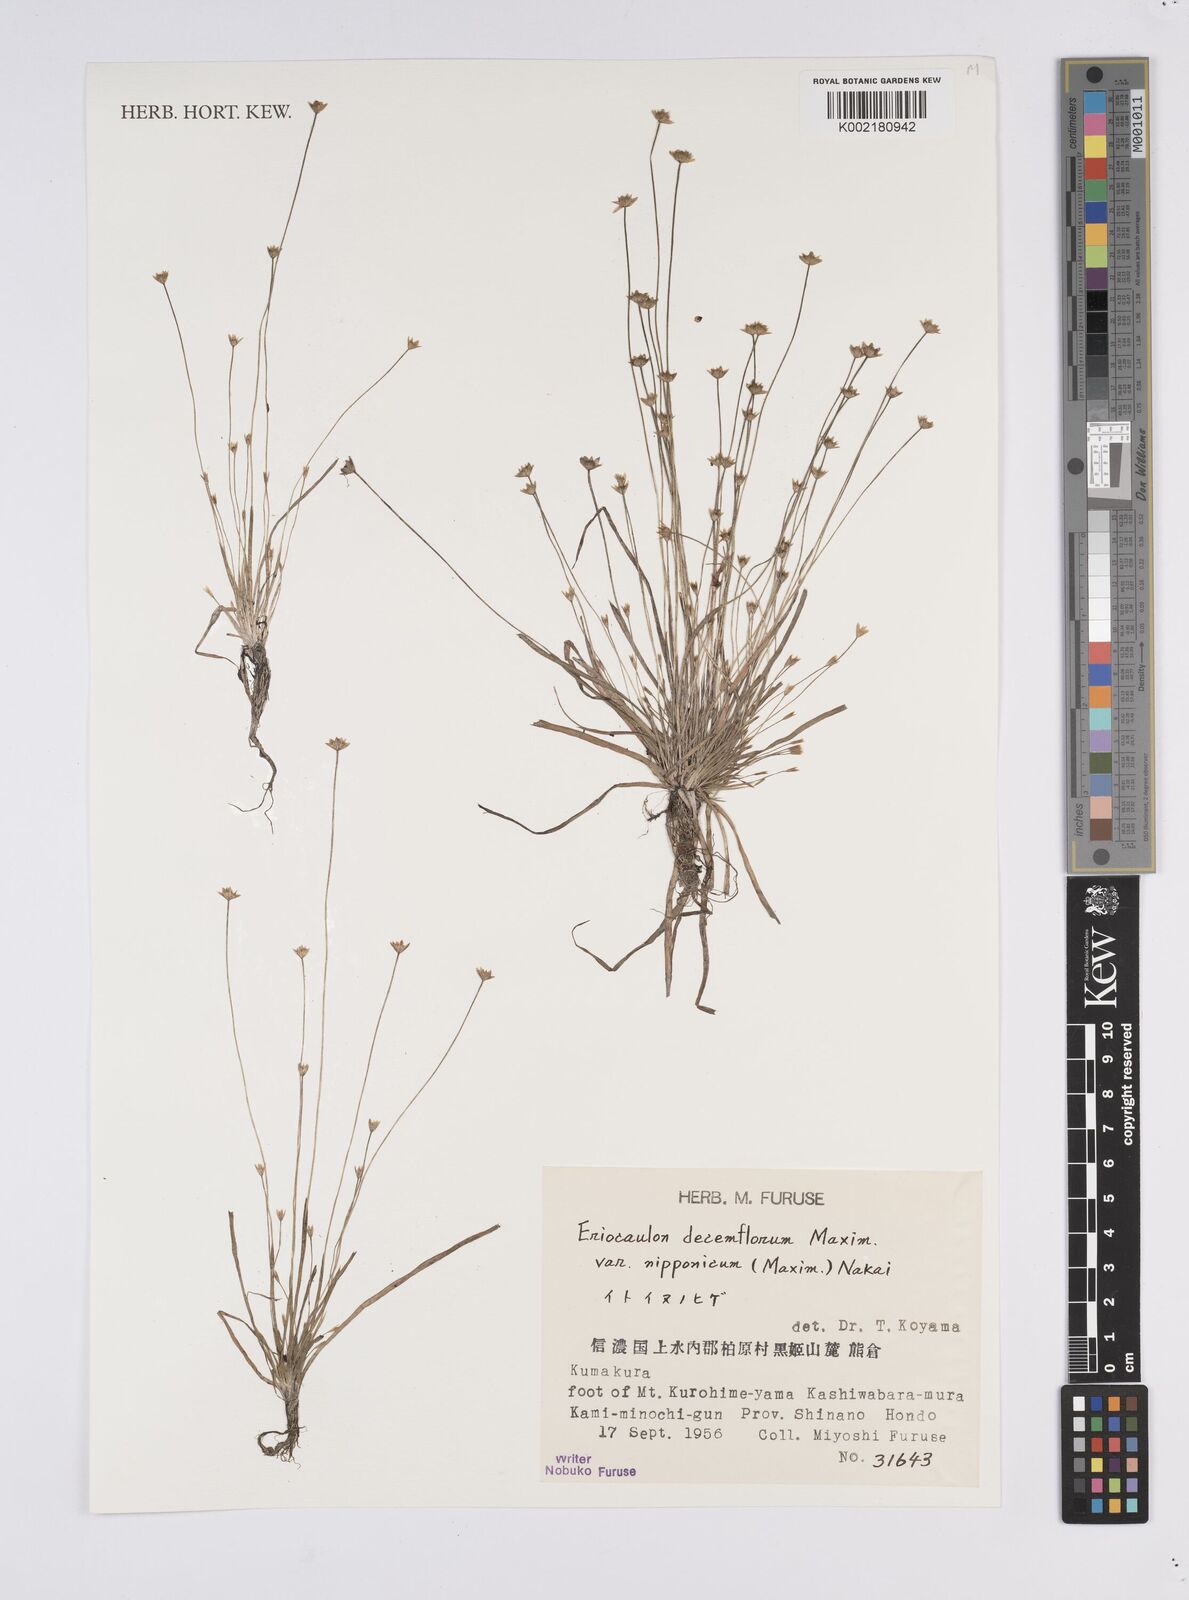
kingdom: Plantae
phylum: Tracheophyta
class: Liliopsida
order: Poales
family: Eriocaulaceae
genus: Eriocaulon
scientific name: Eriocaulon decemflorum
